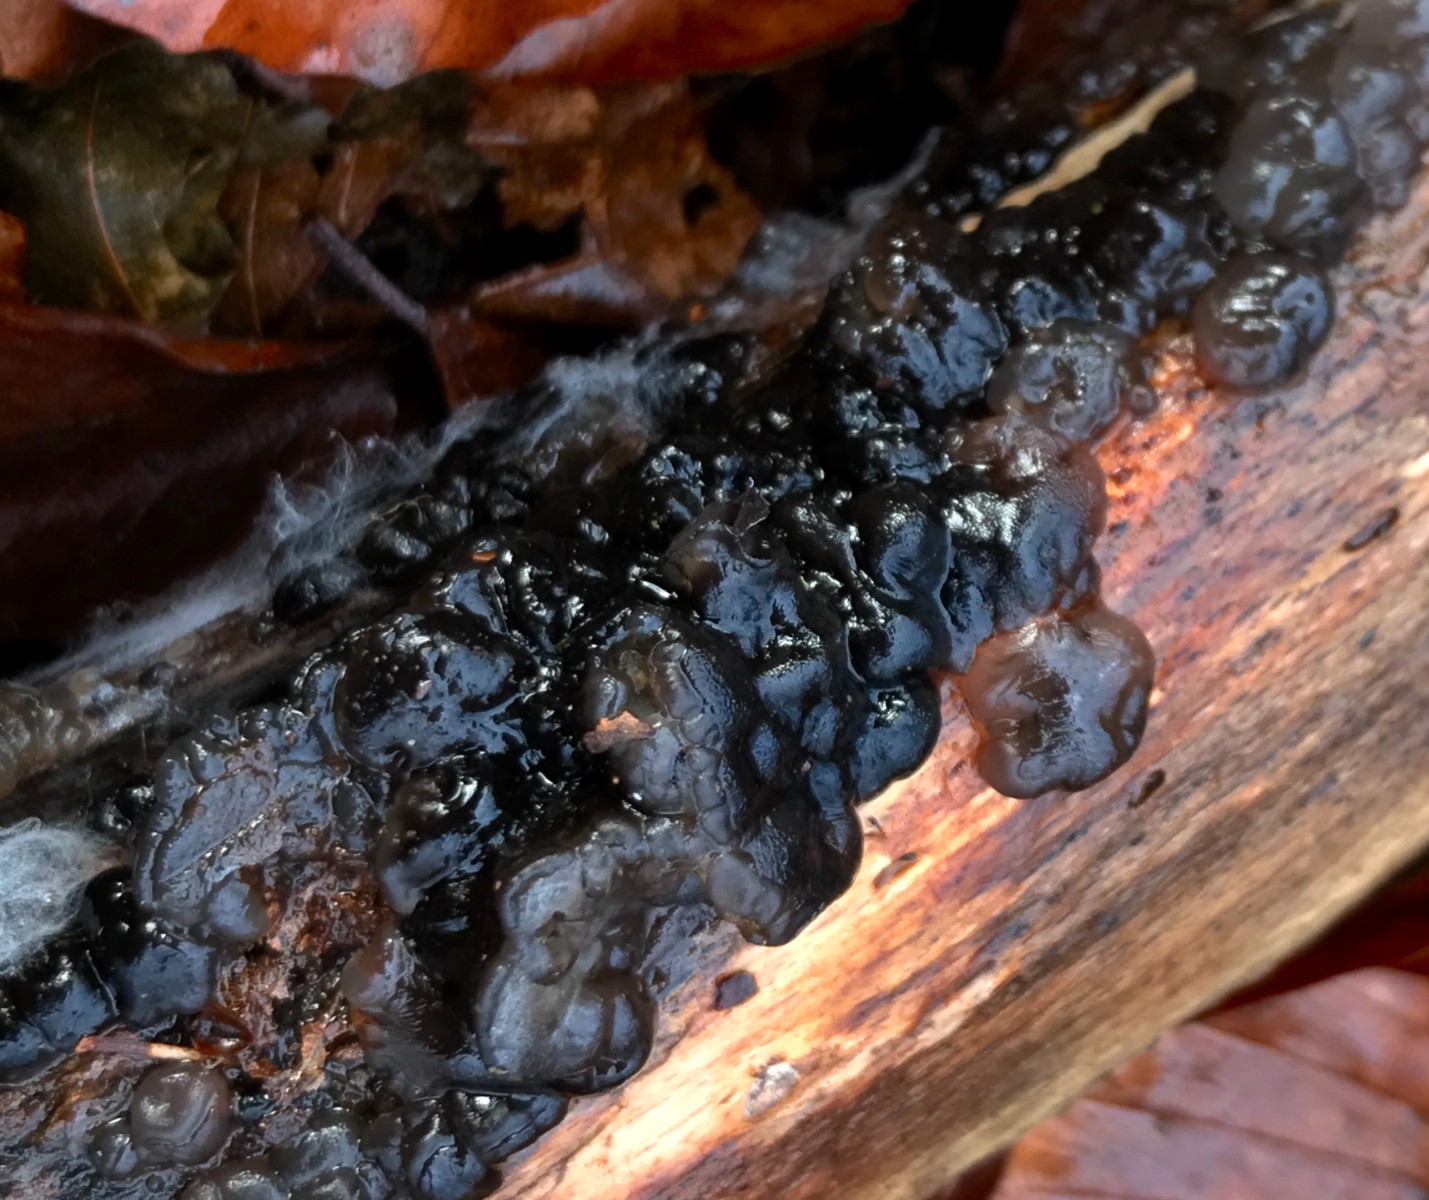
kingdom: Fungi
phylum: Basidiomycota
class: Agaricomycetes
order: Auriculariales
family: Auriculariaceae
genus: Exidia
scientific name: Exidia nigricans
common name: almindelig bævretop
